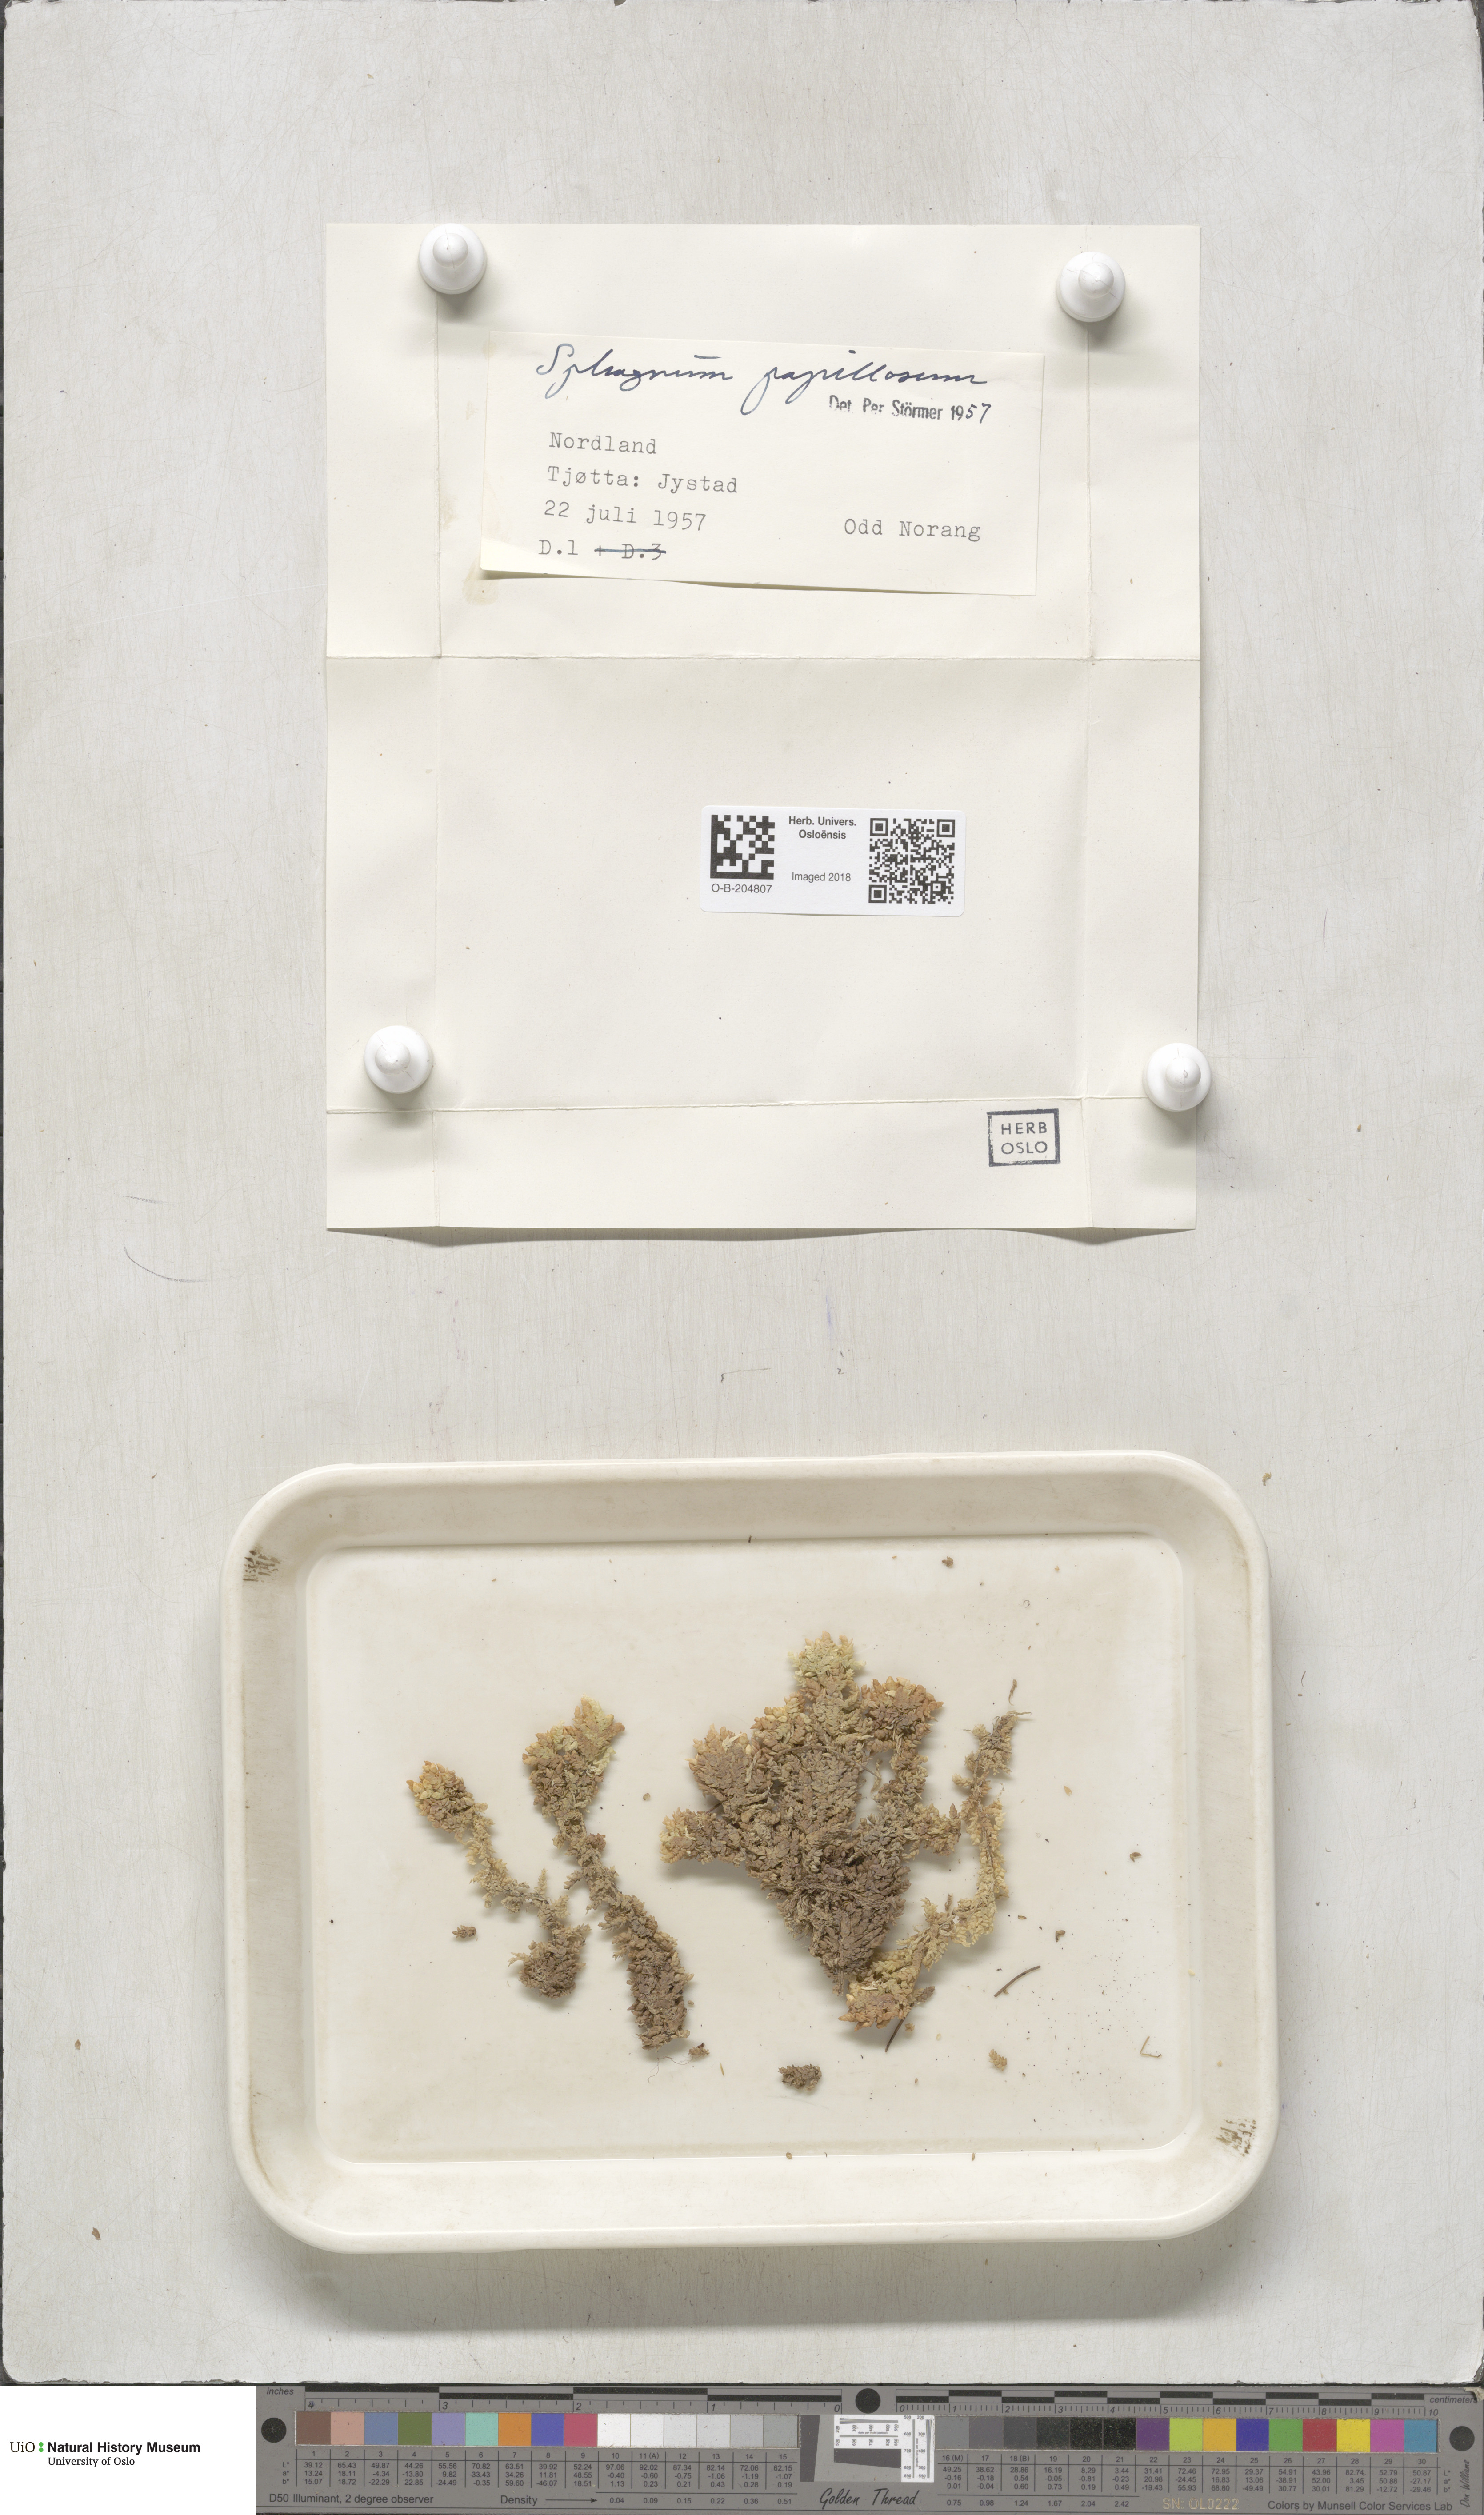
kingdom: Plantae
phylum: Bryophyta
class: Sphagnopsida
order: Sphagnales
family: Sphagnaceae
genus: Sphagnum
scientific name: Sphagnum papillosum
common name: Papillose peat moss
